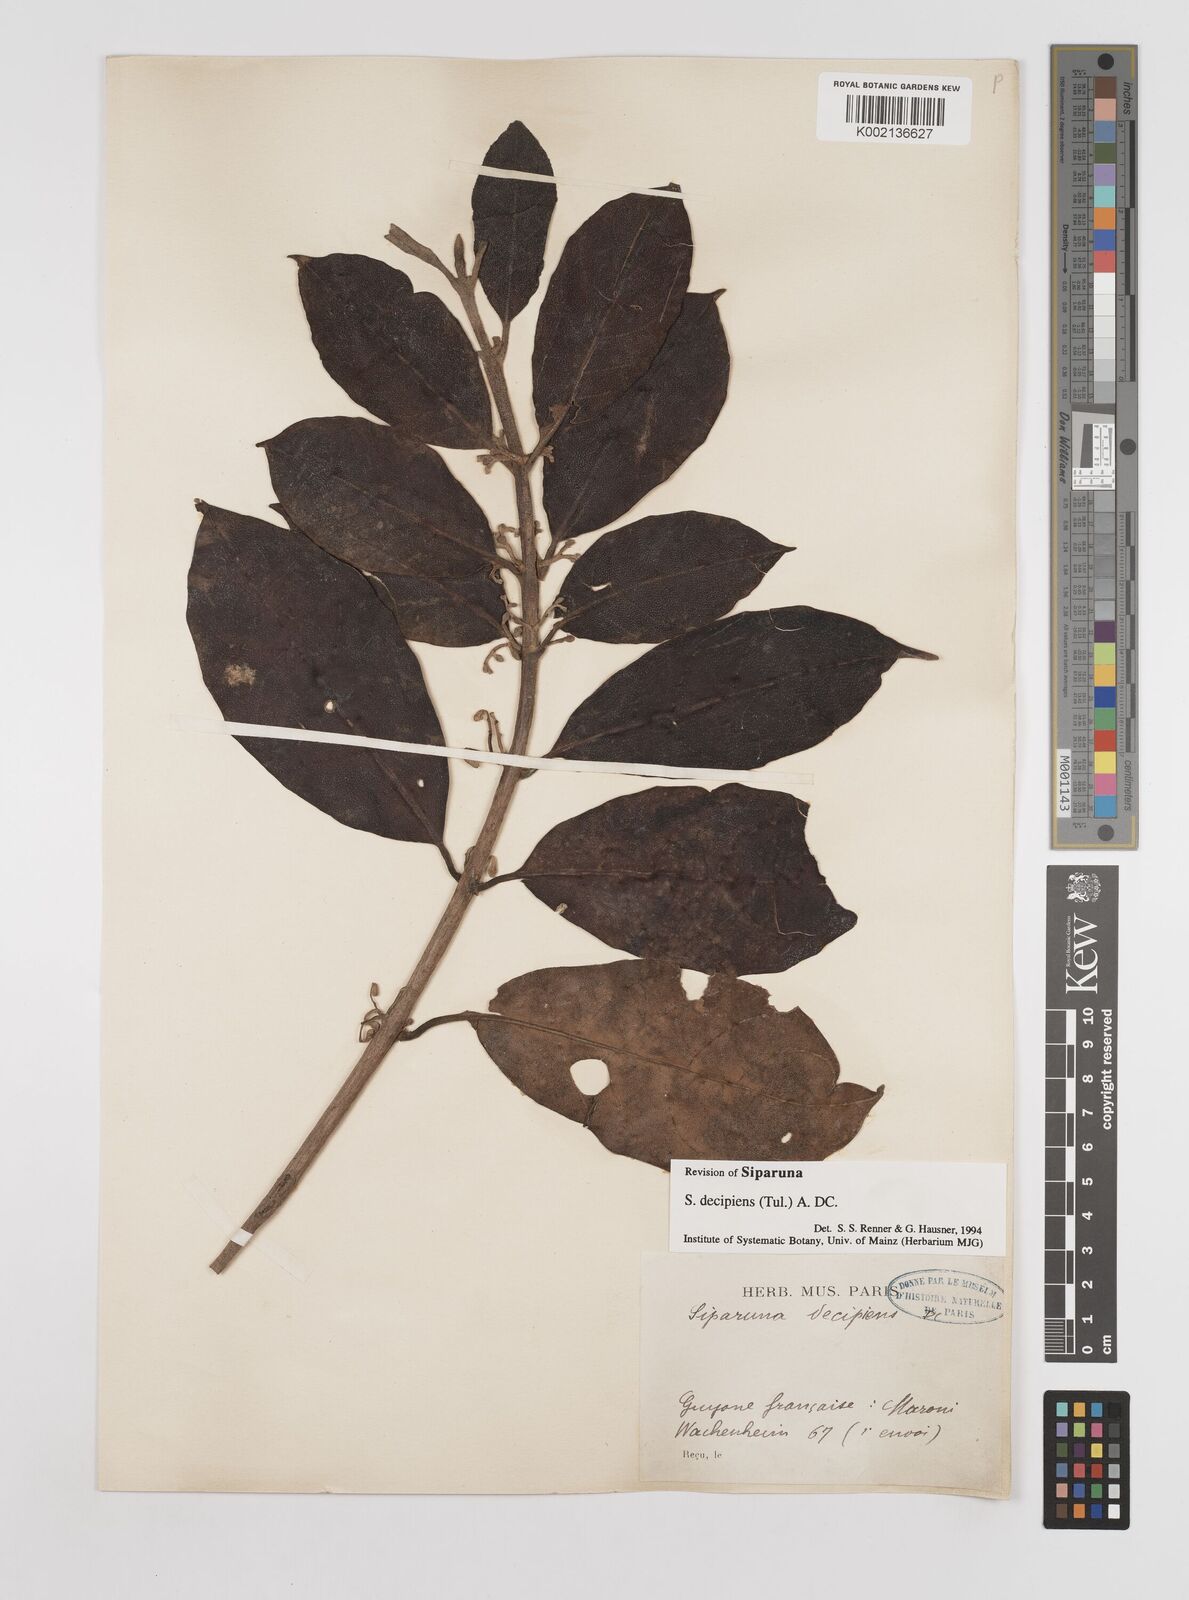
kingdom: Plantae
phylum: Tracheophyta
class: Magnoliopsida
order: Laurales
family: Siparunaceae
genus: Siparuna
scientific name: Siparuna decipiens
